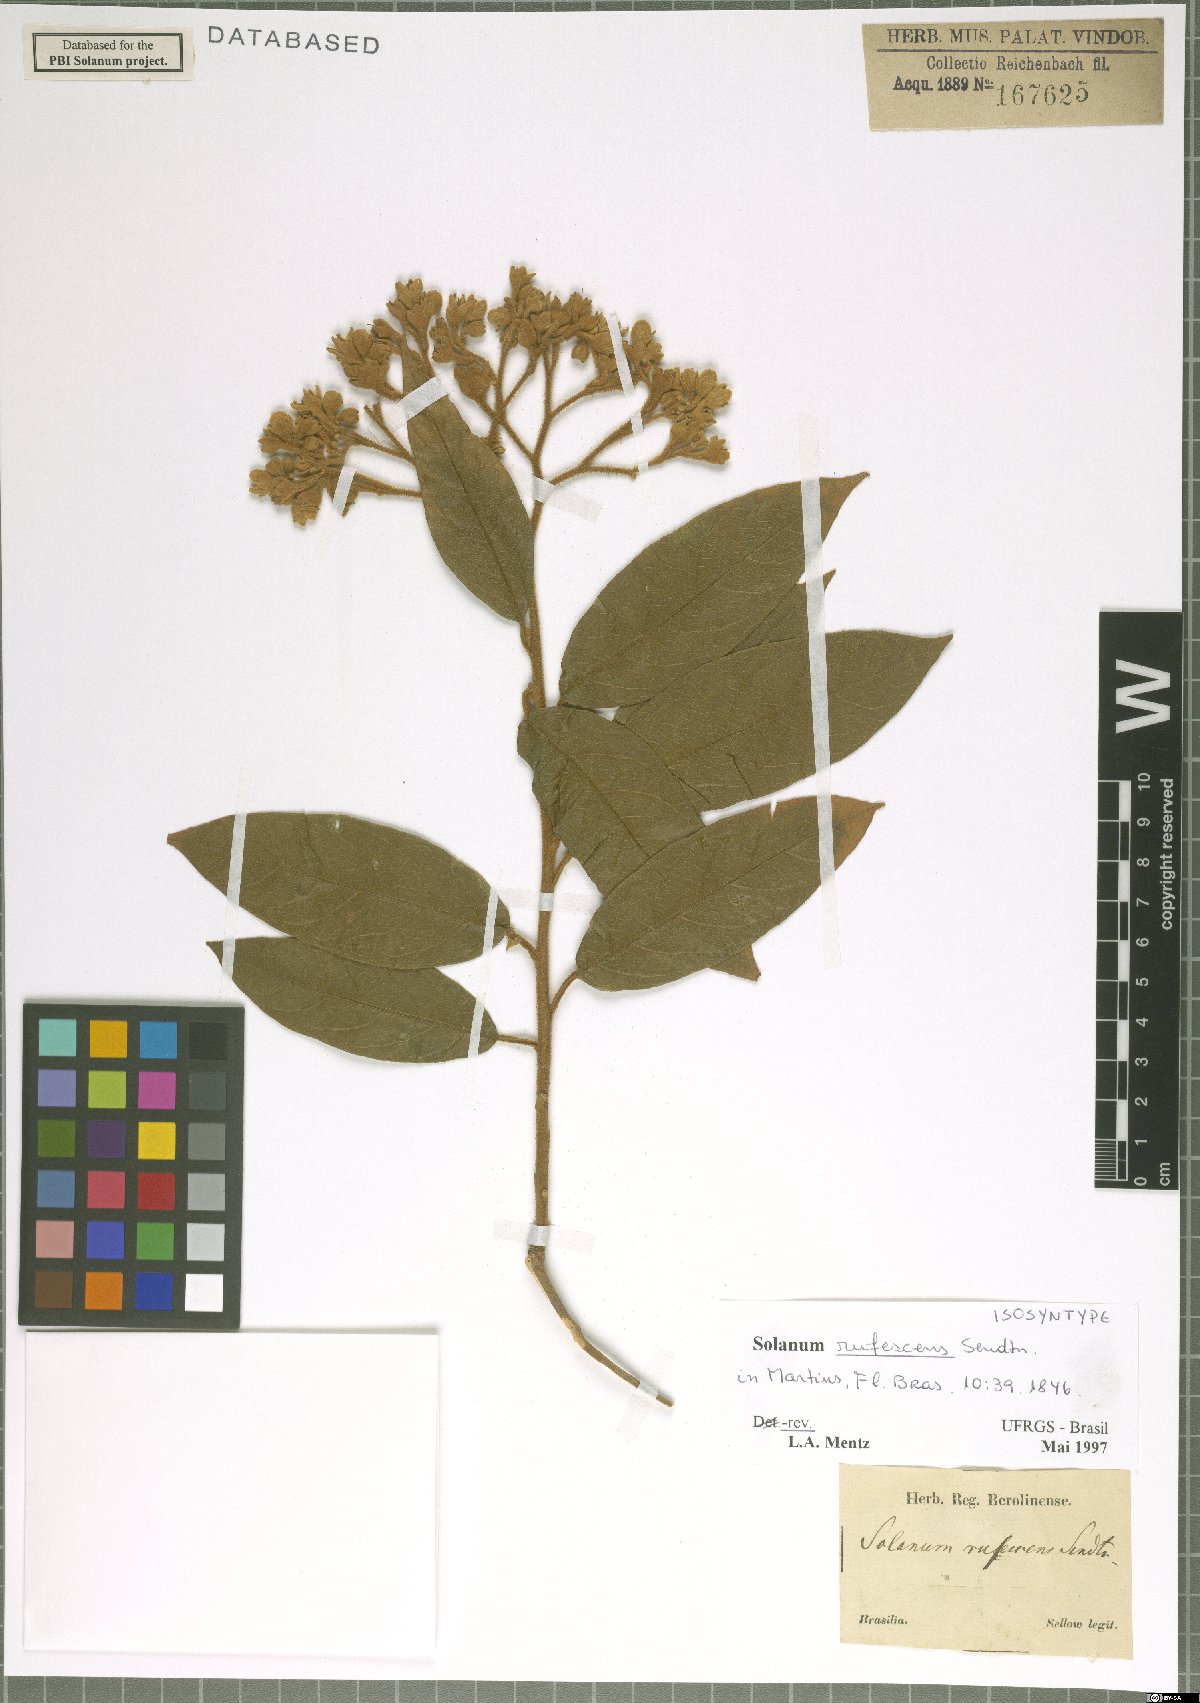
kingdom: Plantae
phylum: Tracheophyta
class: Magnoliopsida
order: Solanales
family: Solanaceae
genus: Solanum
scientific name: Solanum rufescens
